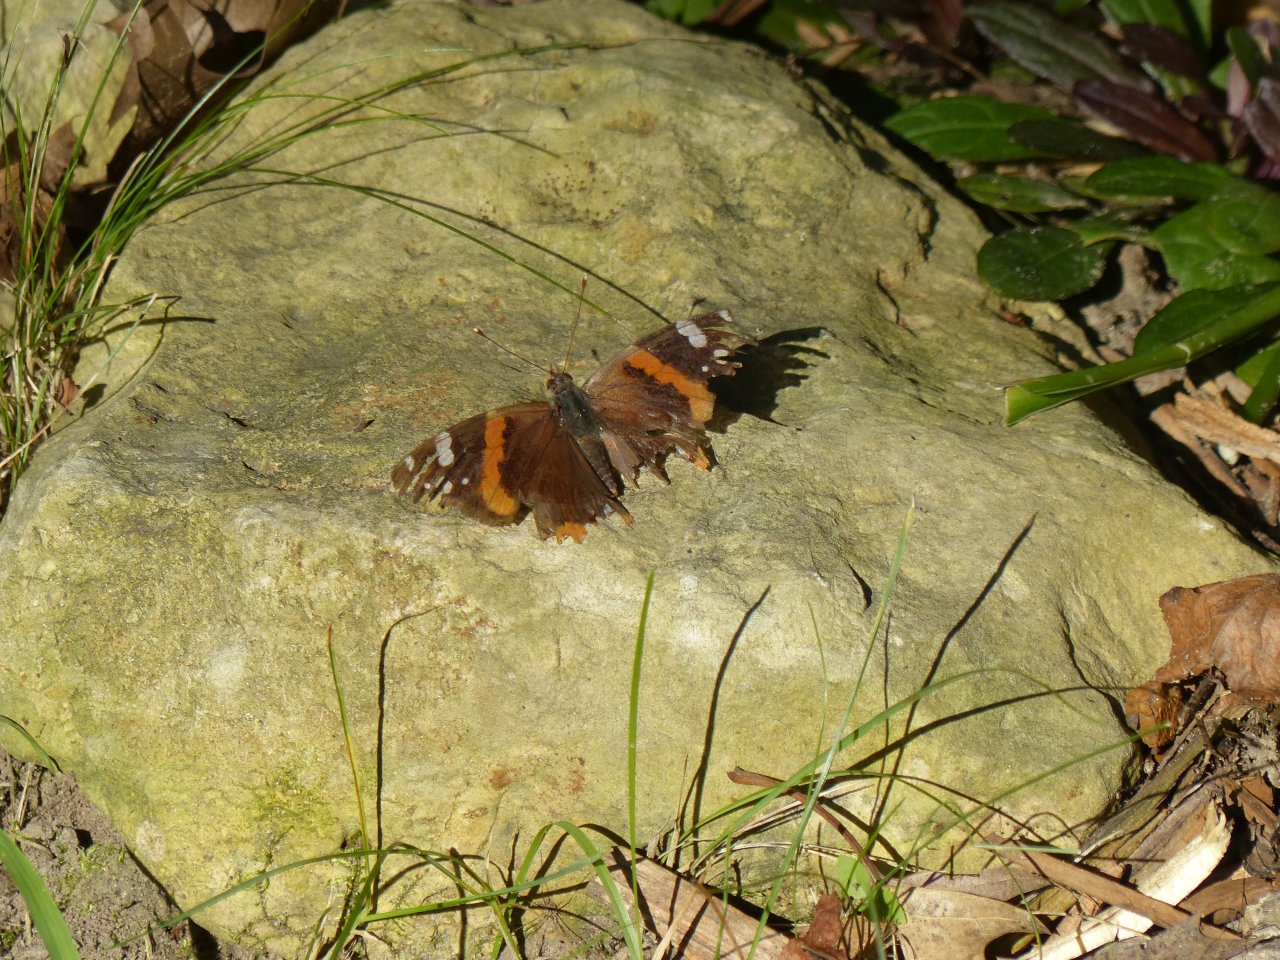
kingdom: Animalia
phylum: Arthropoda
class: Insecta
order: Lepidoptera
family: Nymphalidae
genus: Vanessa
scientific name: Vanessa atalanta
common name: Red Admiral
